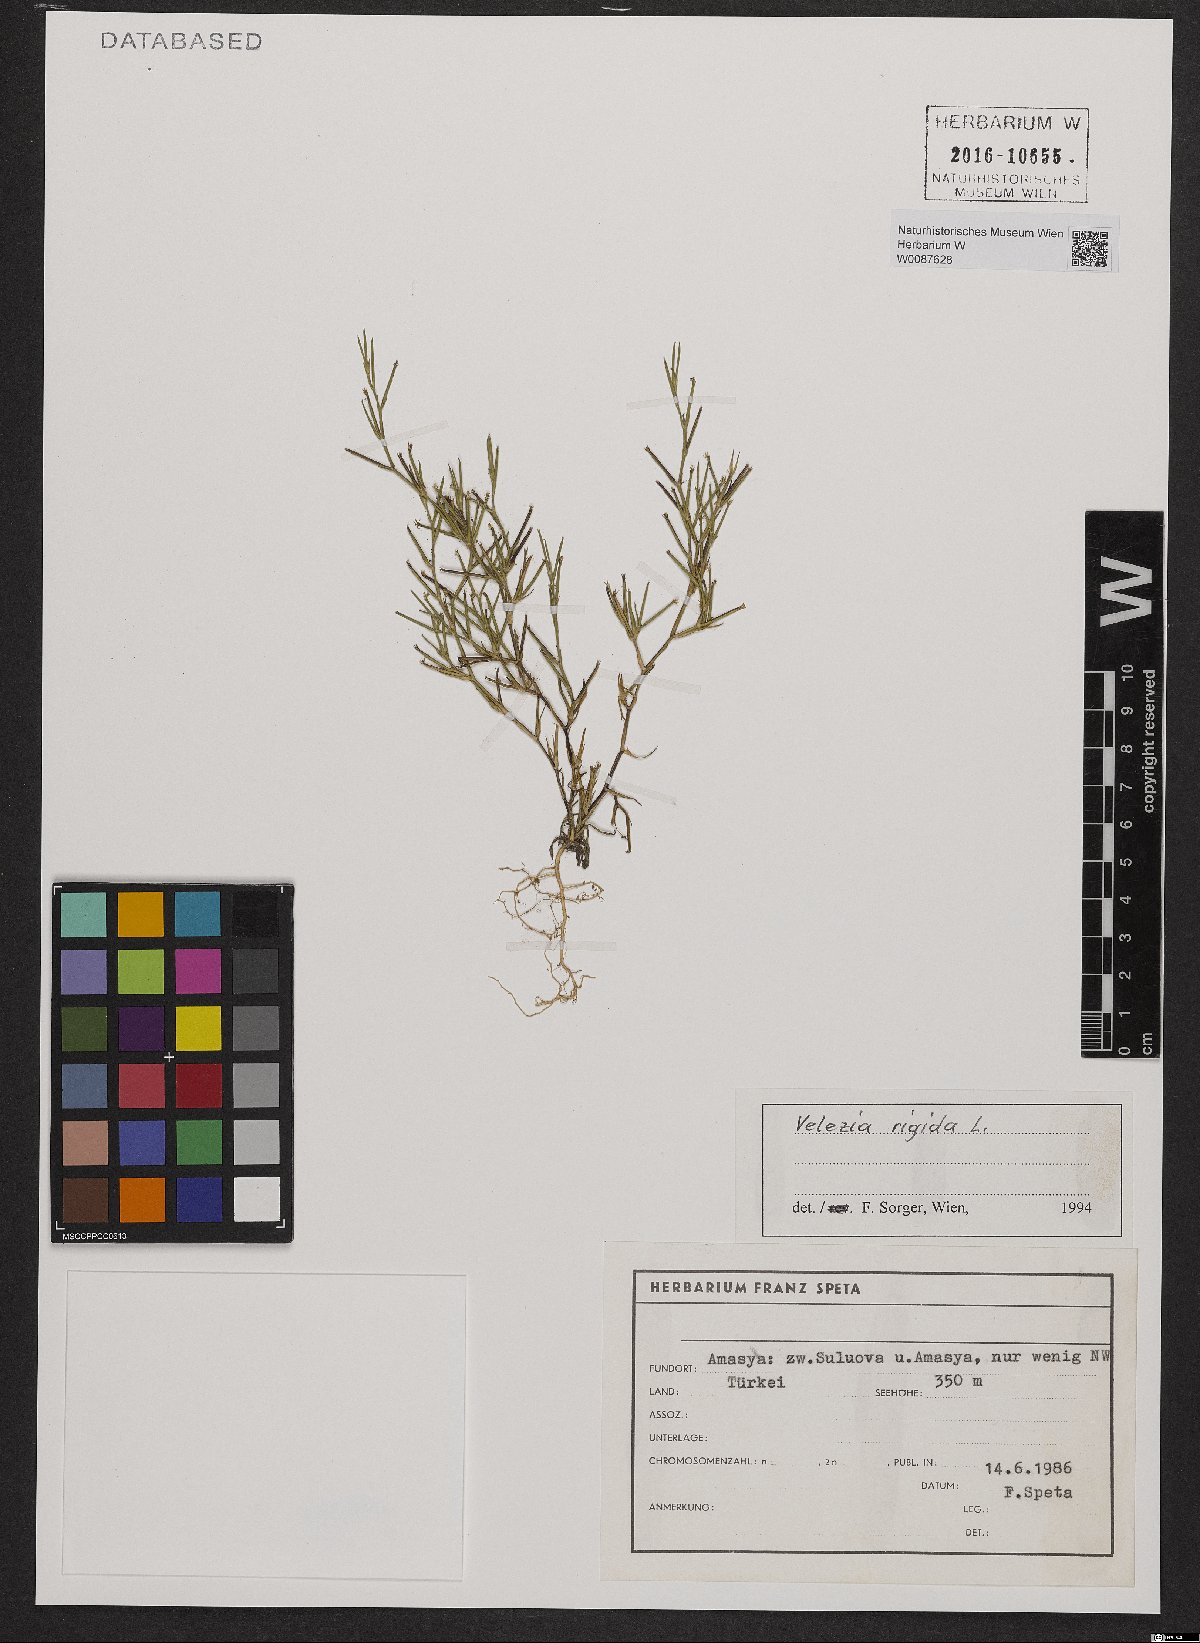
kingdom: Plantae
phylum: Tracheophyta
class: Magnoliopsida
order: Caryophyllales
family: Caryophyllaceae
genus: Dianthus
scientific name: Dianthus nudiflorus
